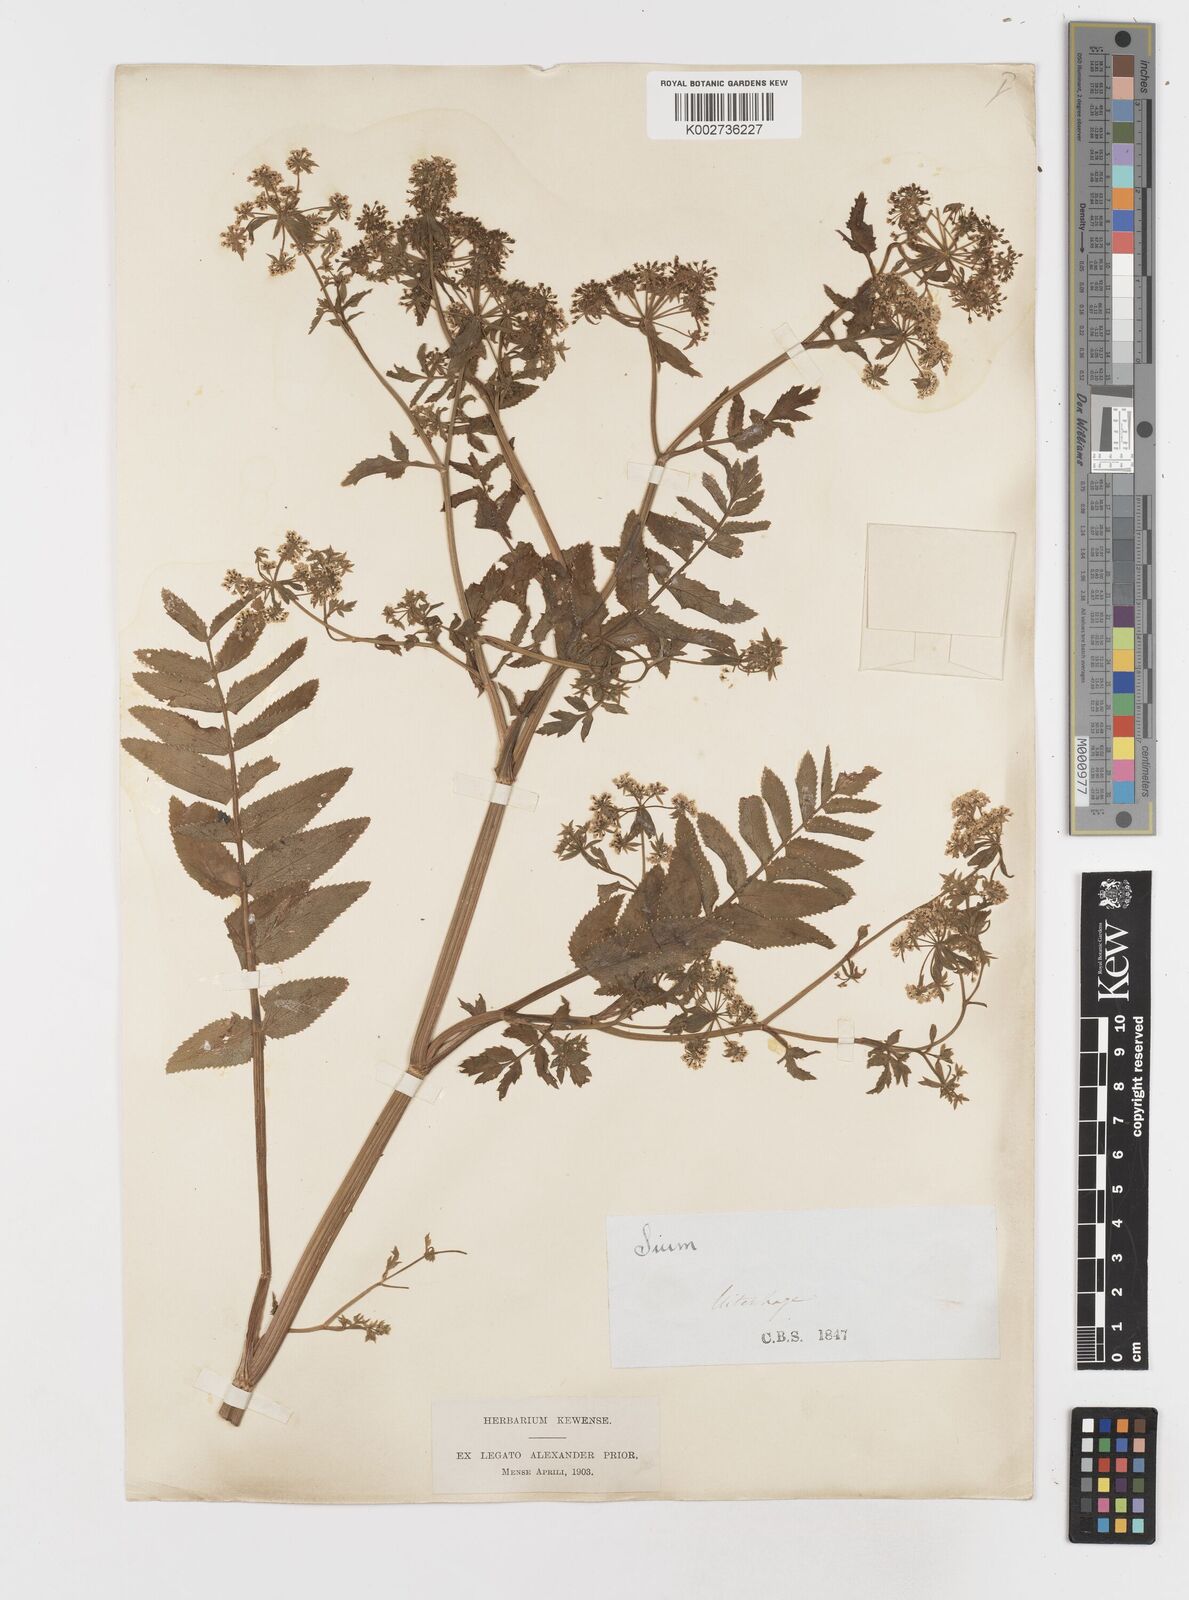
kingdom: Plantae
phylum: Tracheophyta
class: Magnoliopsida
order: Apiales
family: Apiaceae
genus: Berula
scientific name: Berula erecta
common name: Lesser water-parsnip
